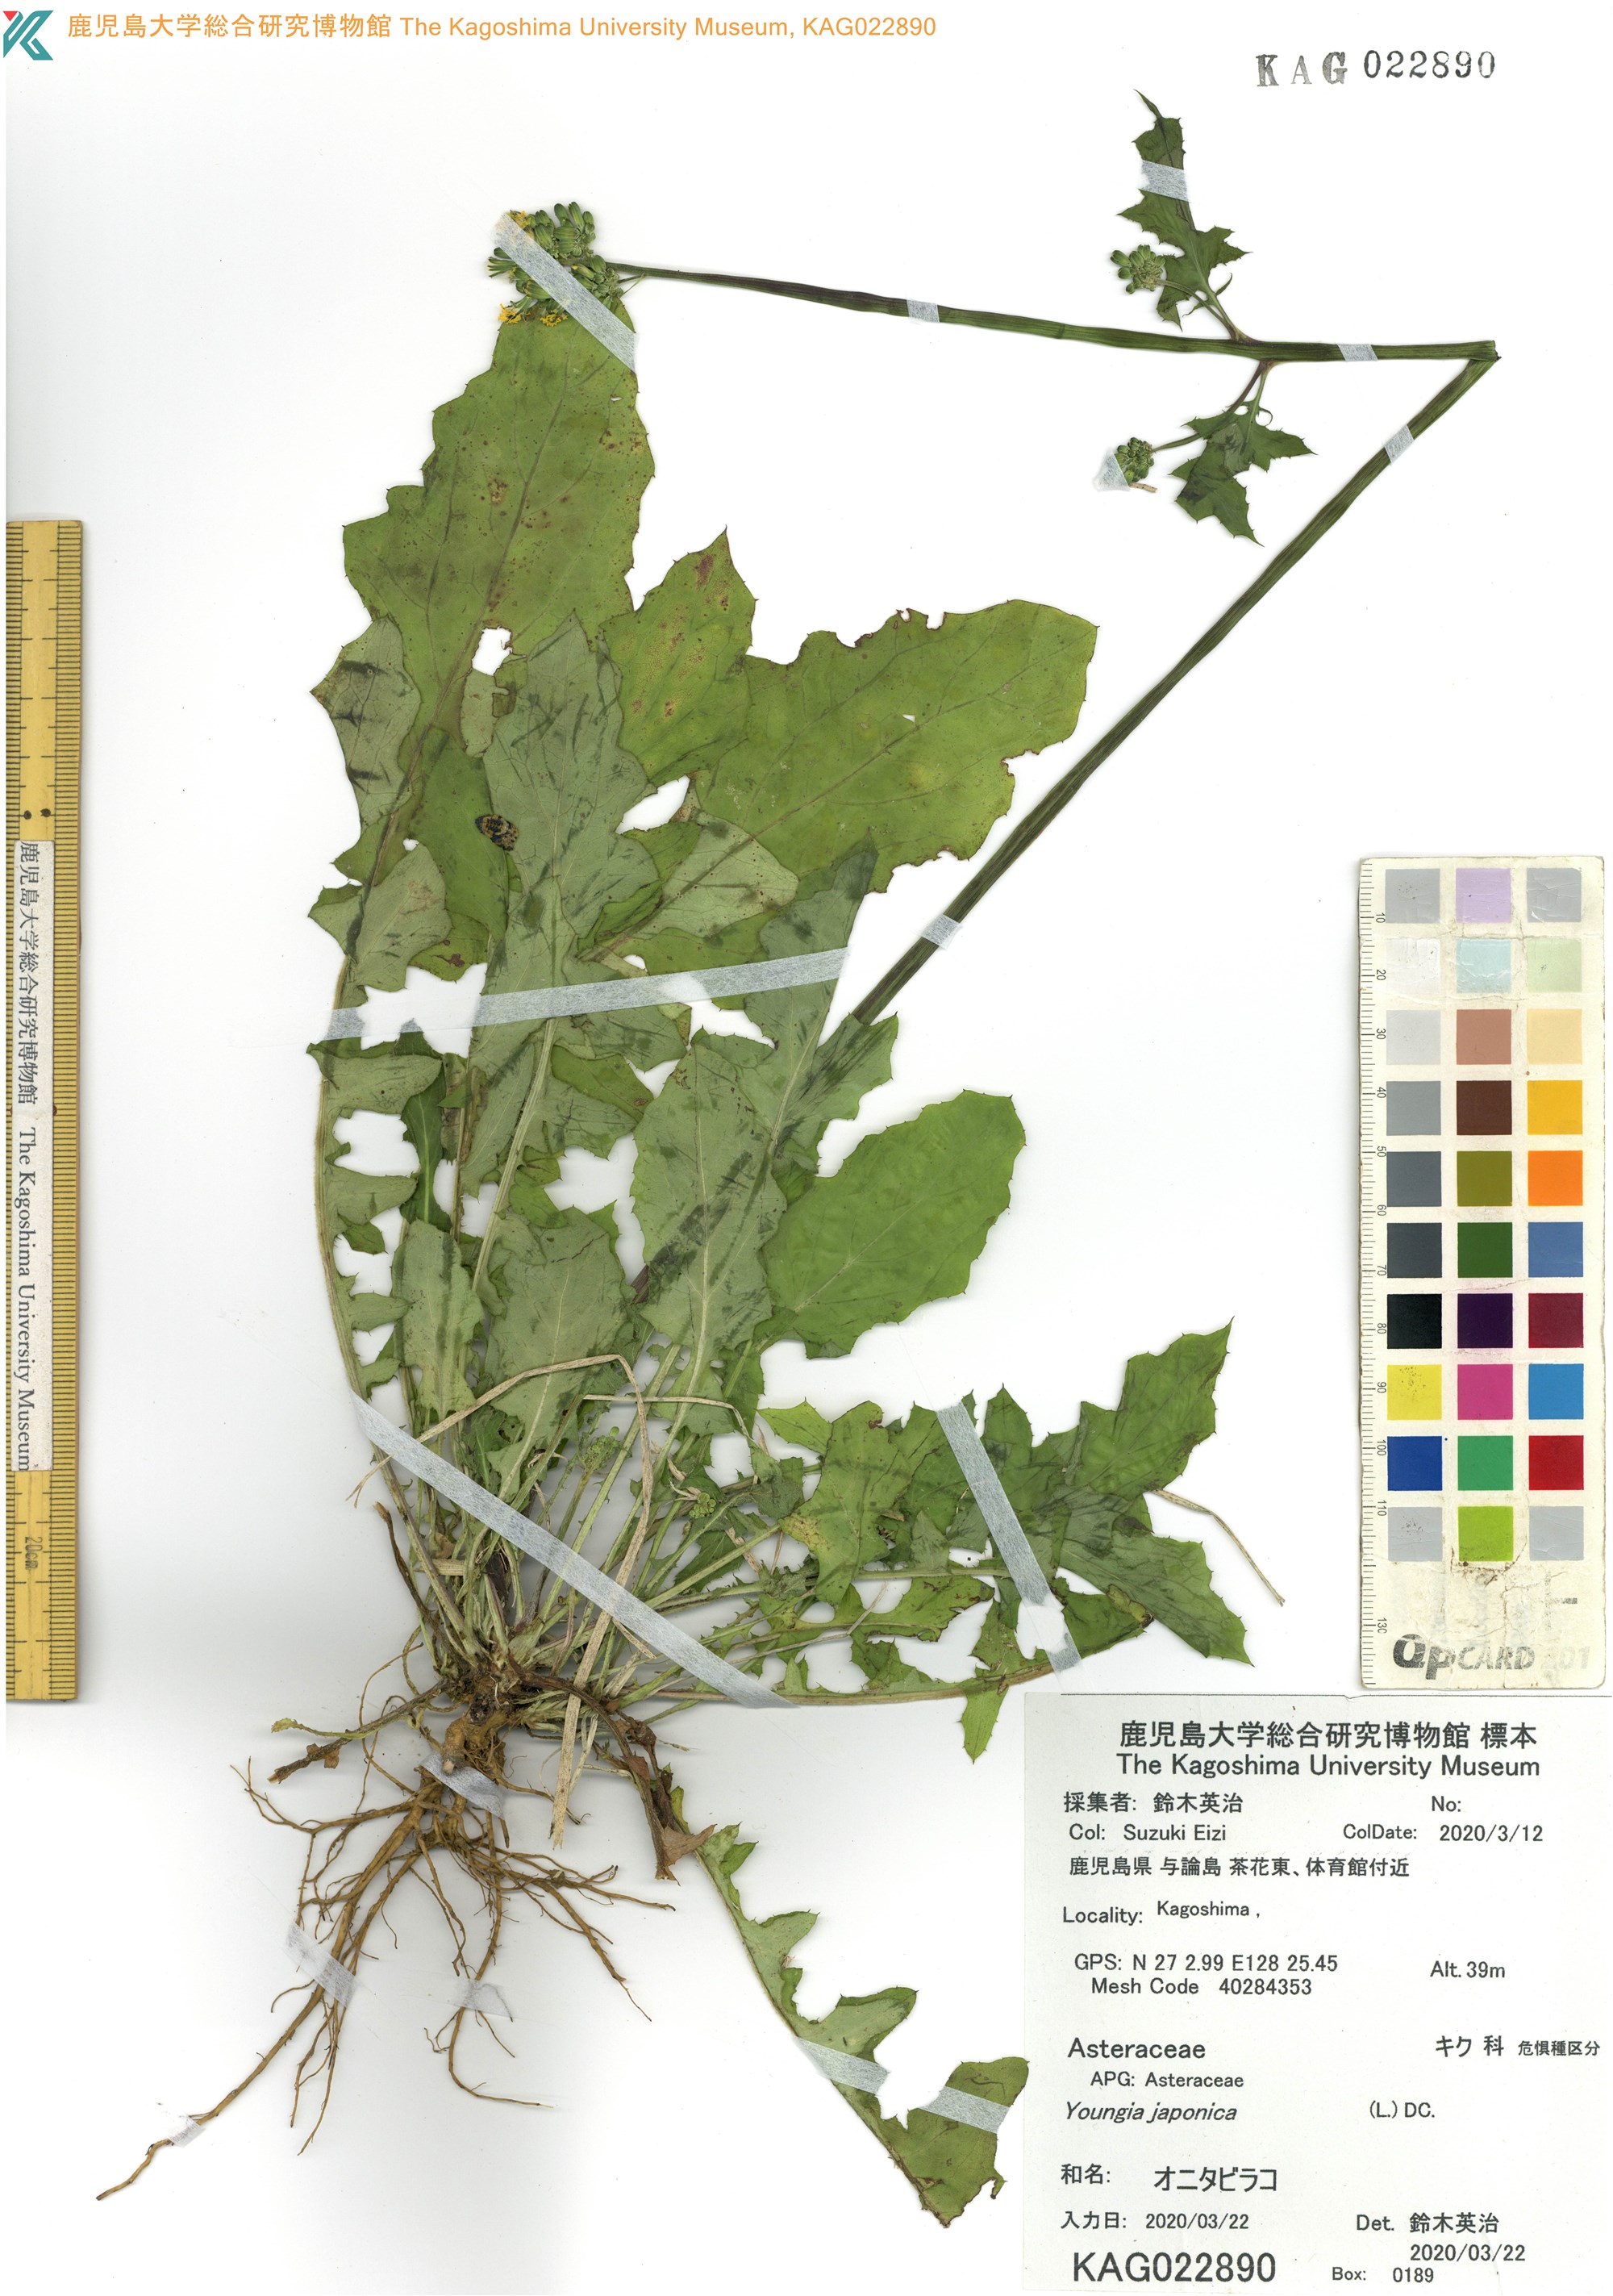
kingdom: Plantae
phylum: Tracheophyta
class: Magnoliopsida
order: Asterales
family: Asteraceae
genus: Youngia
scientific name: Youngia japonica
